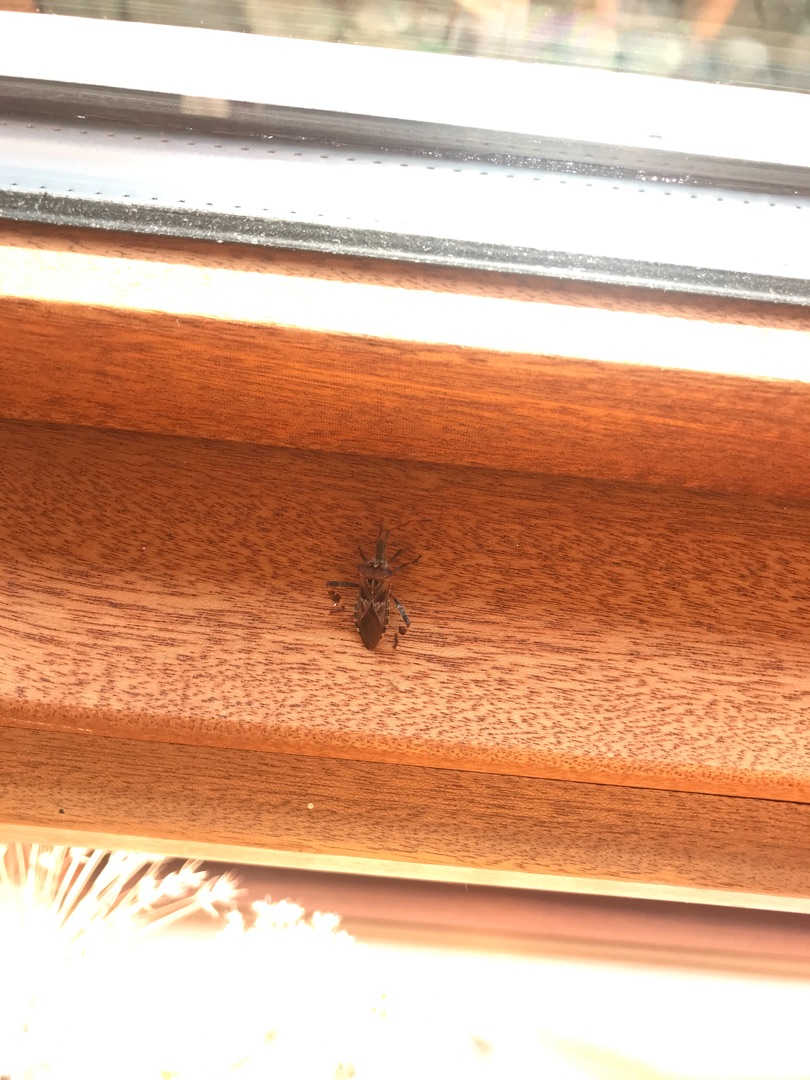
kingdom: Animalia
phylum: Arthropoda
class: Insecta
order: Hemiptera
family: Coreidae
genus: Leptoglossus
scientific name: Leptoglossus occidentalis
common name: Amerikansk fyrretæge
